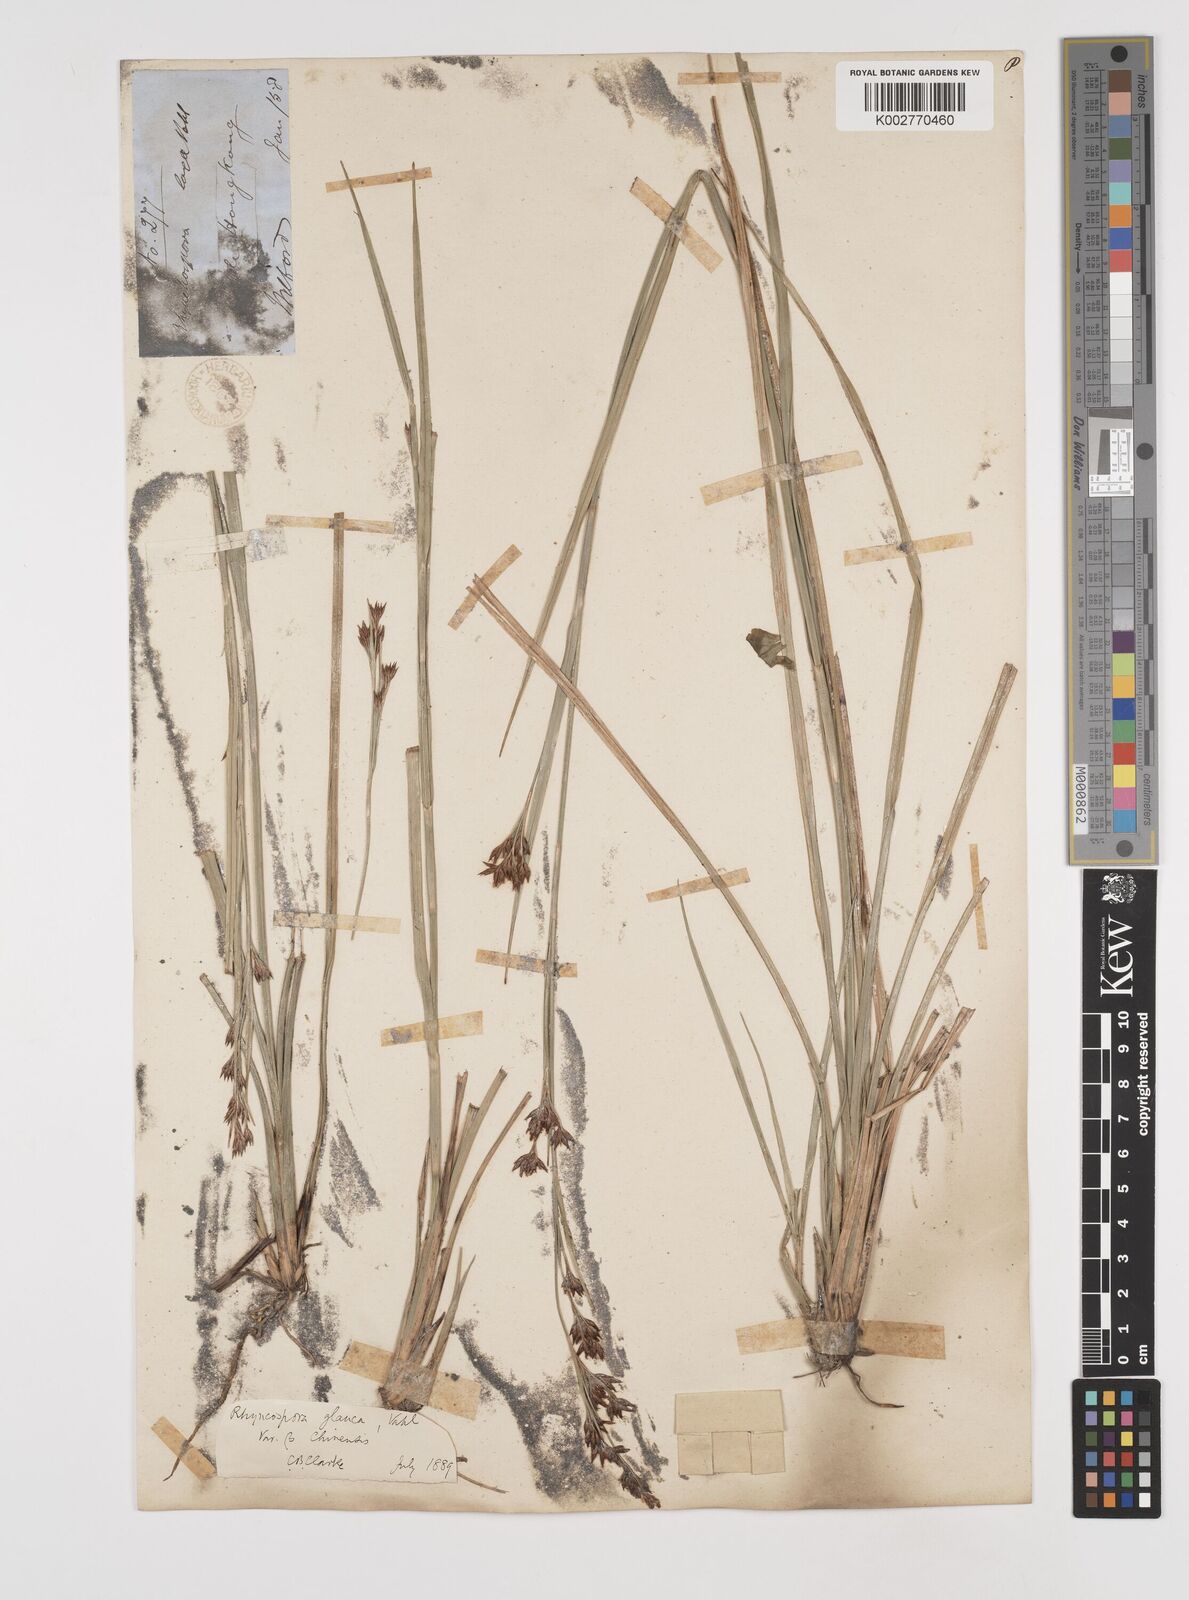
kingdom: Plantae
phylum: Tracheophyta
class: Liliopsida
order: Poales
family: Cyperaceae
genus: Rhynchospora
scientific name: Rhynchospora
